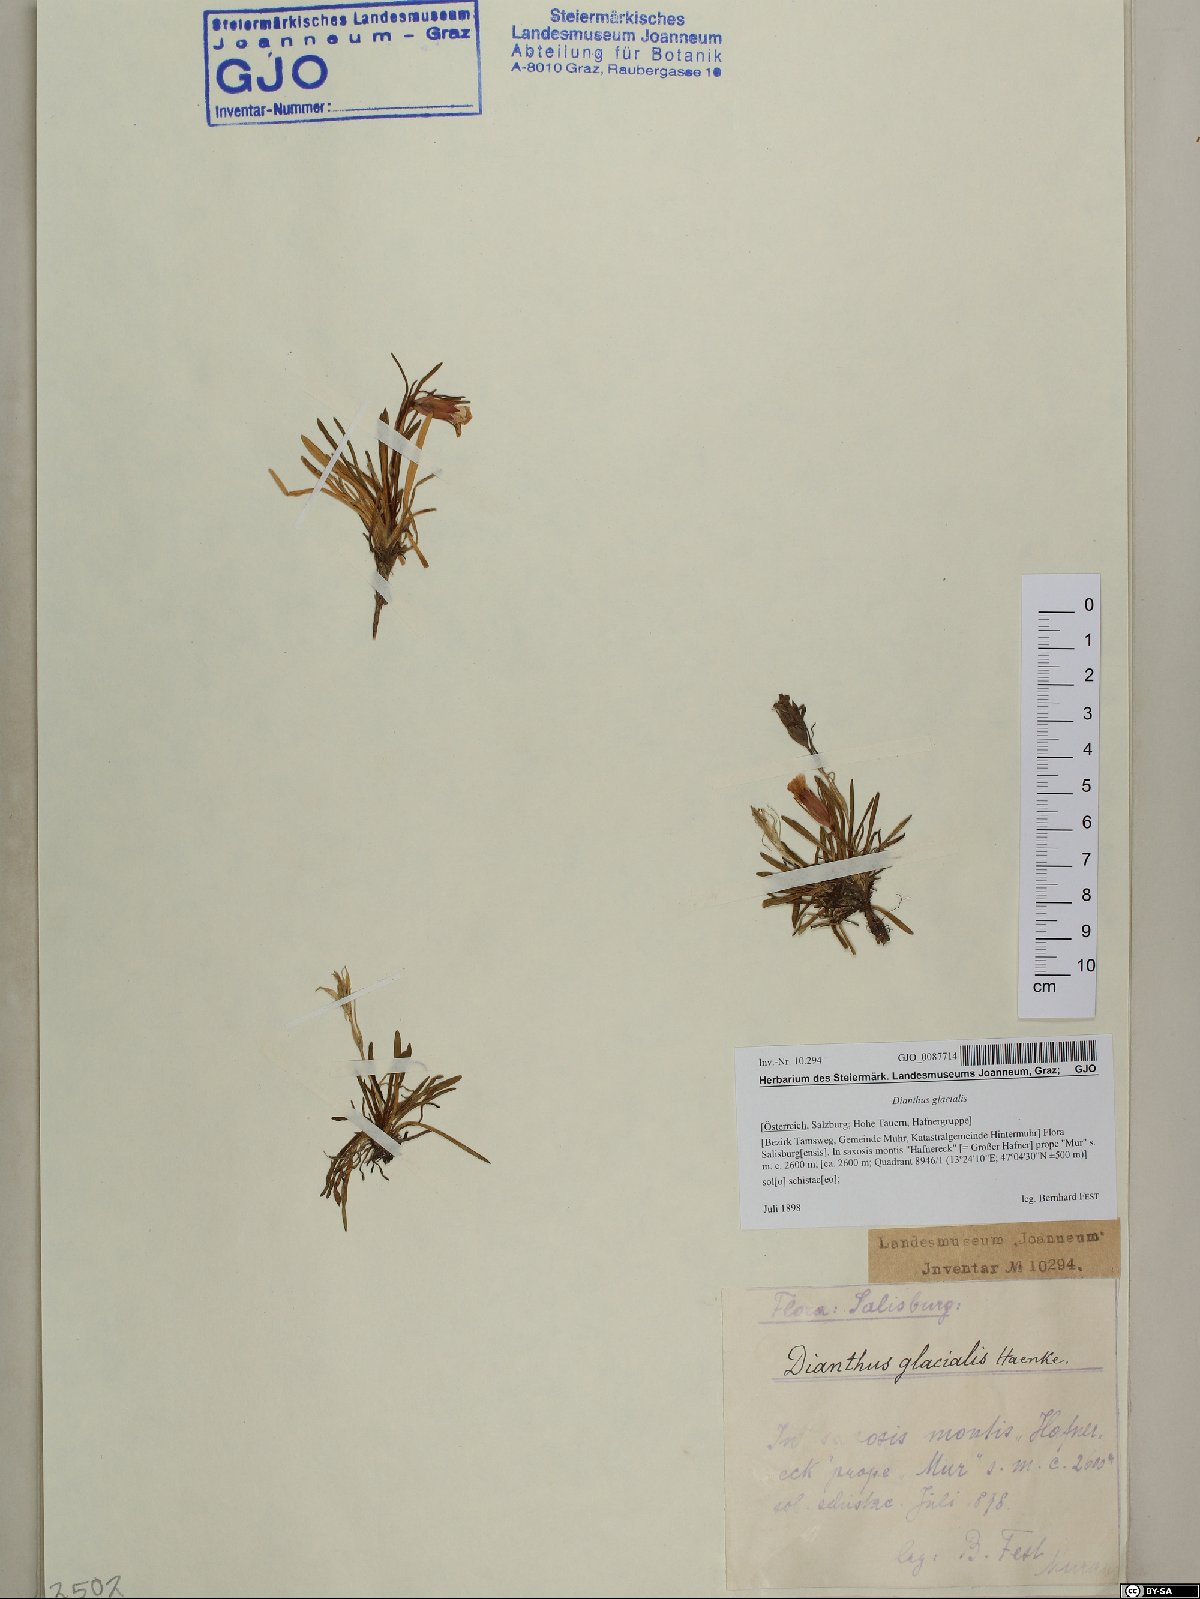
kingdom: Plantae
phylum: Tracheophyta
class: Magnoliopsida
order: Caryophyllales
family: Caryophyllaceae
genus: Dianthus
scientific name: Dianthus glacialis
